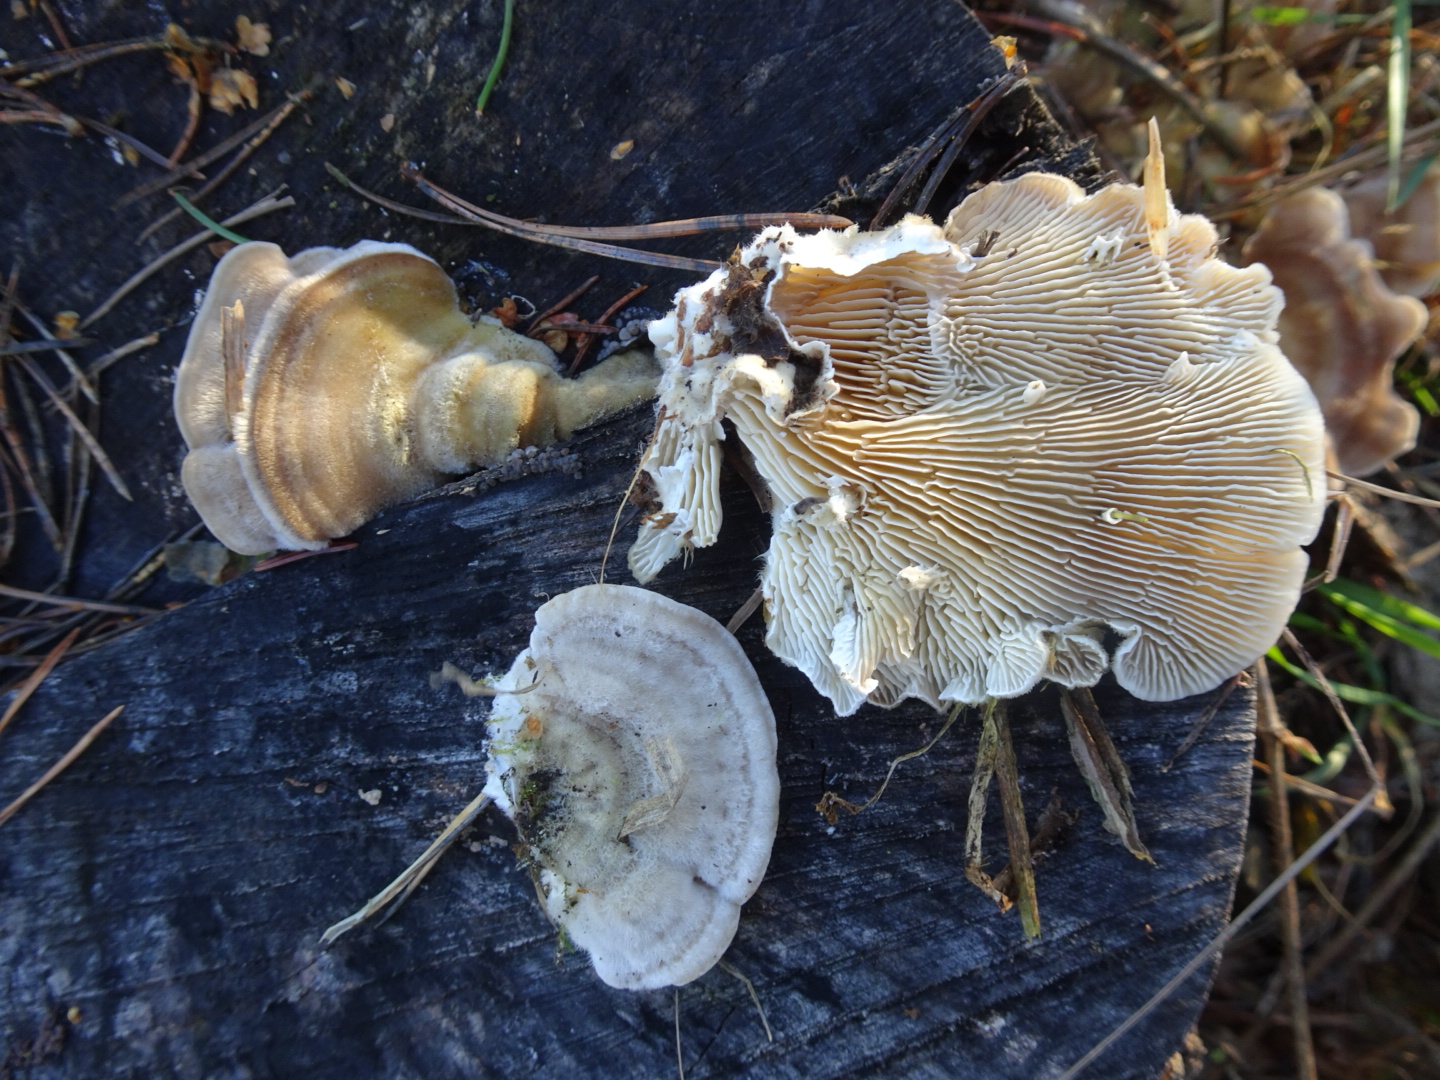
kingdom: Fungi
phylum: Basidiomycota
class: Agaricomycetes
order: Polyporales
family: Polyporaceae
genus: Lenzites
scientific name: Lenzites betulinus
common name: birke-læderporesvamp
